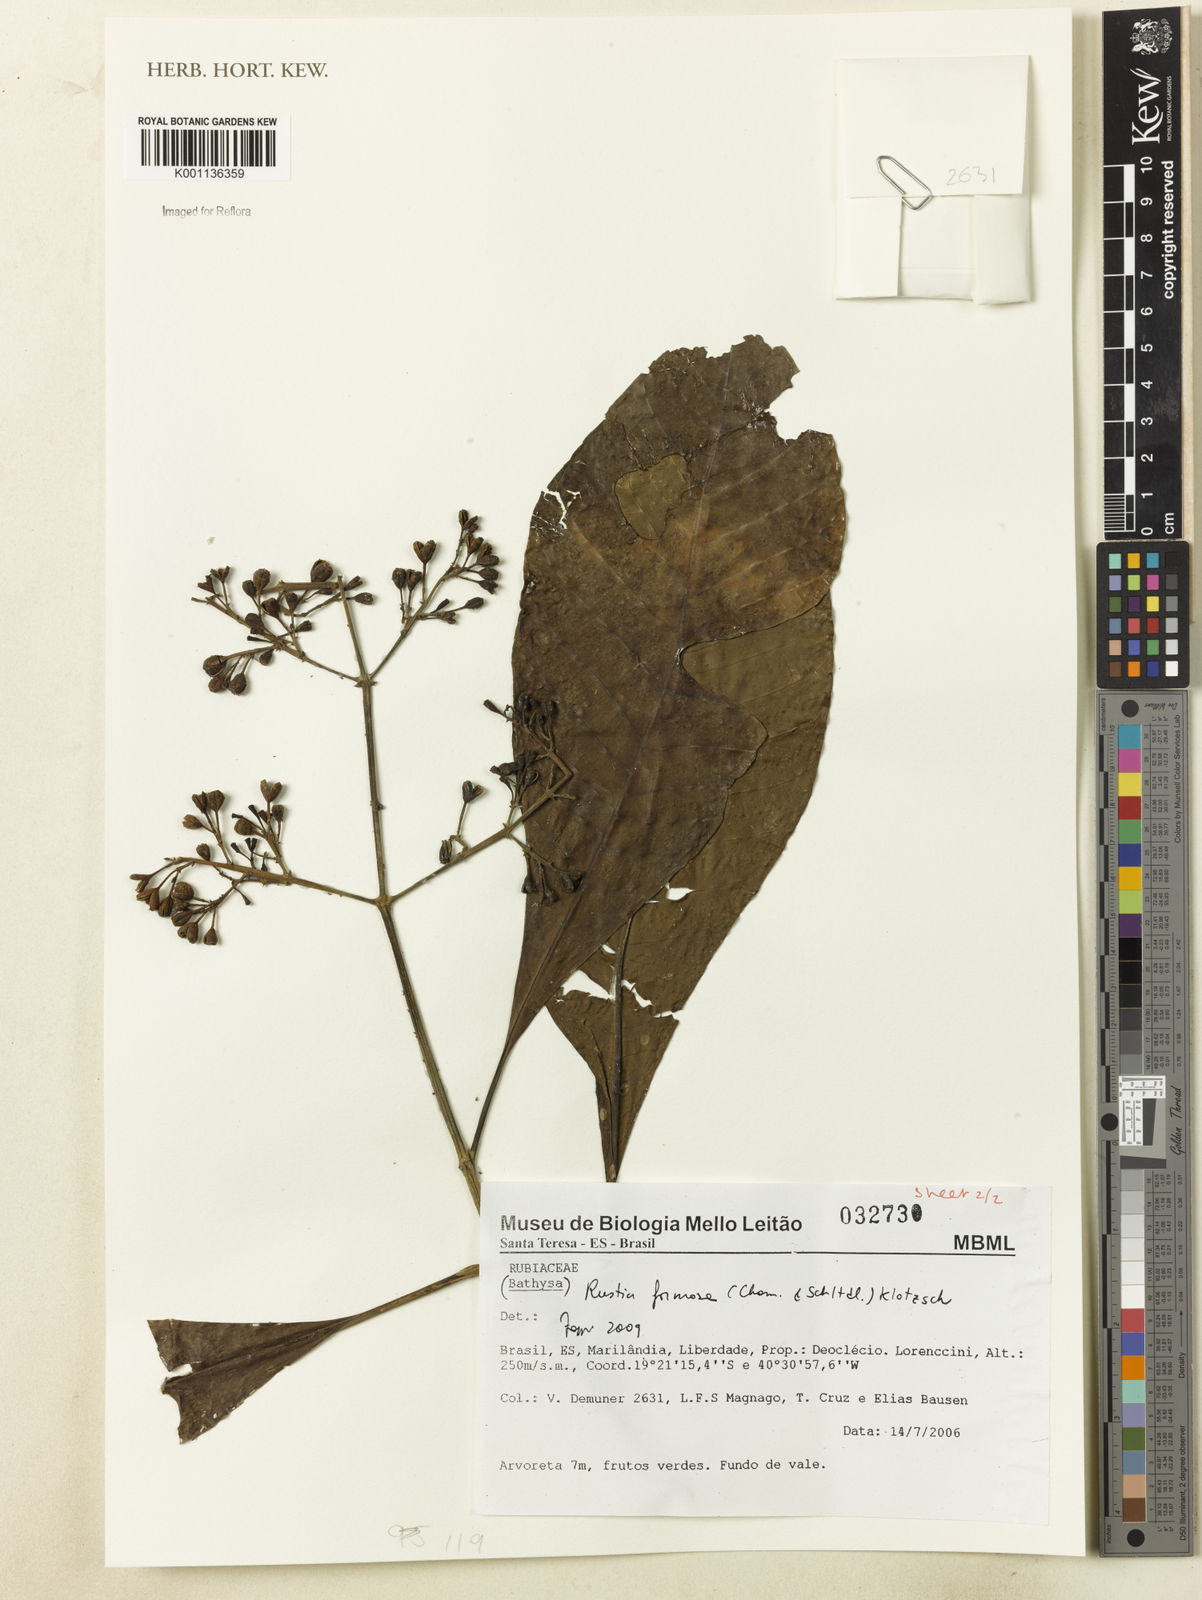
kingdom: Plantae
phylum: Tracheophyta
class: Magnoliopsida
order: Gentianales
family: Rubiaceae
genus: Rustia
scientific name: Rustia formosa
